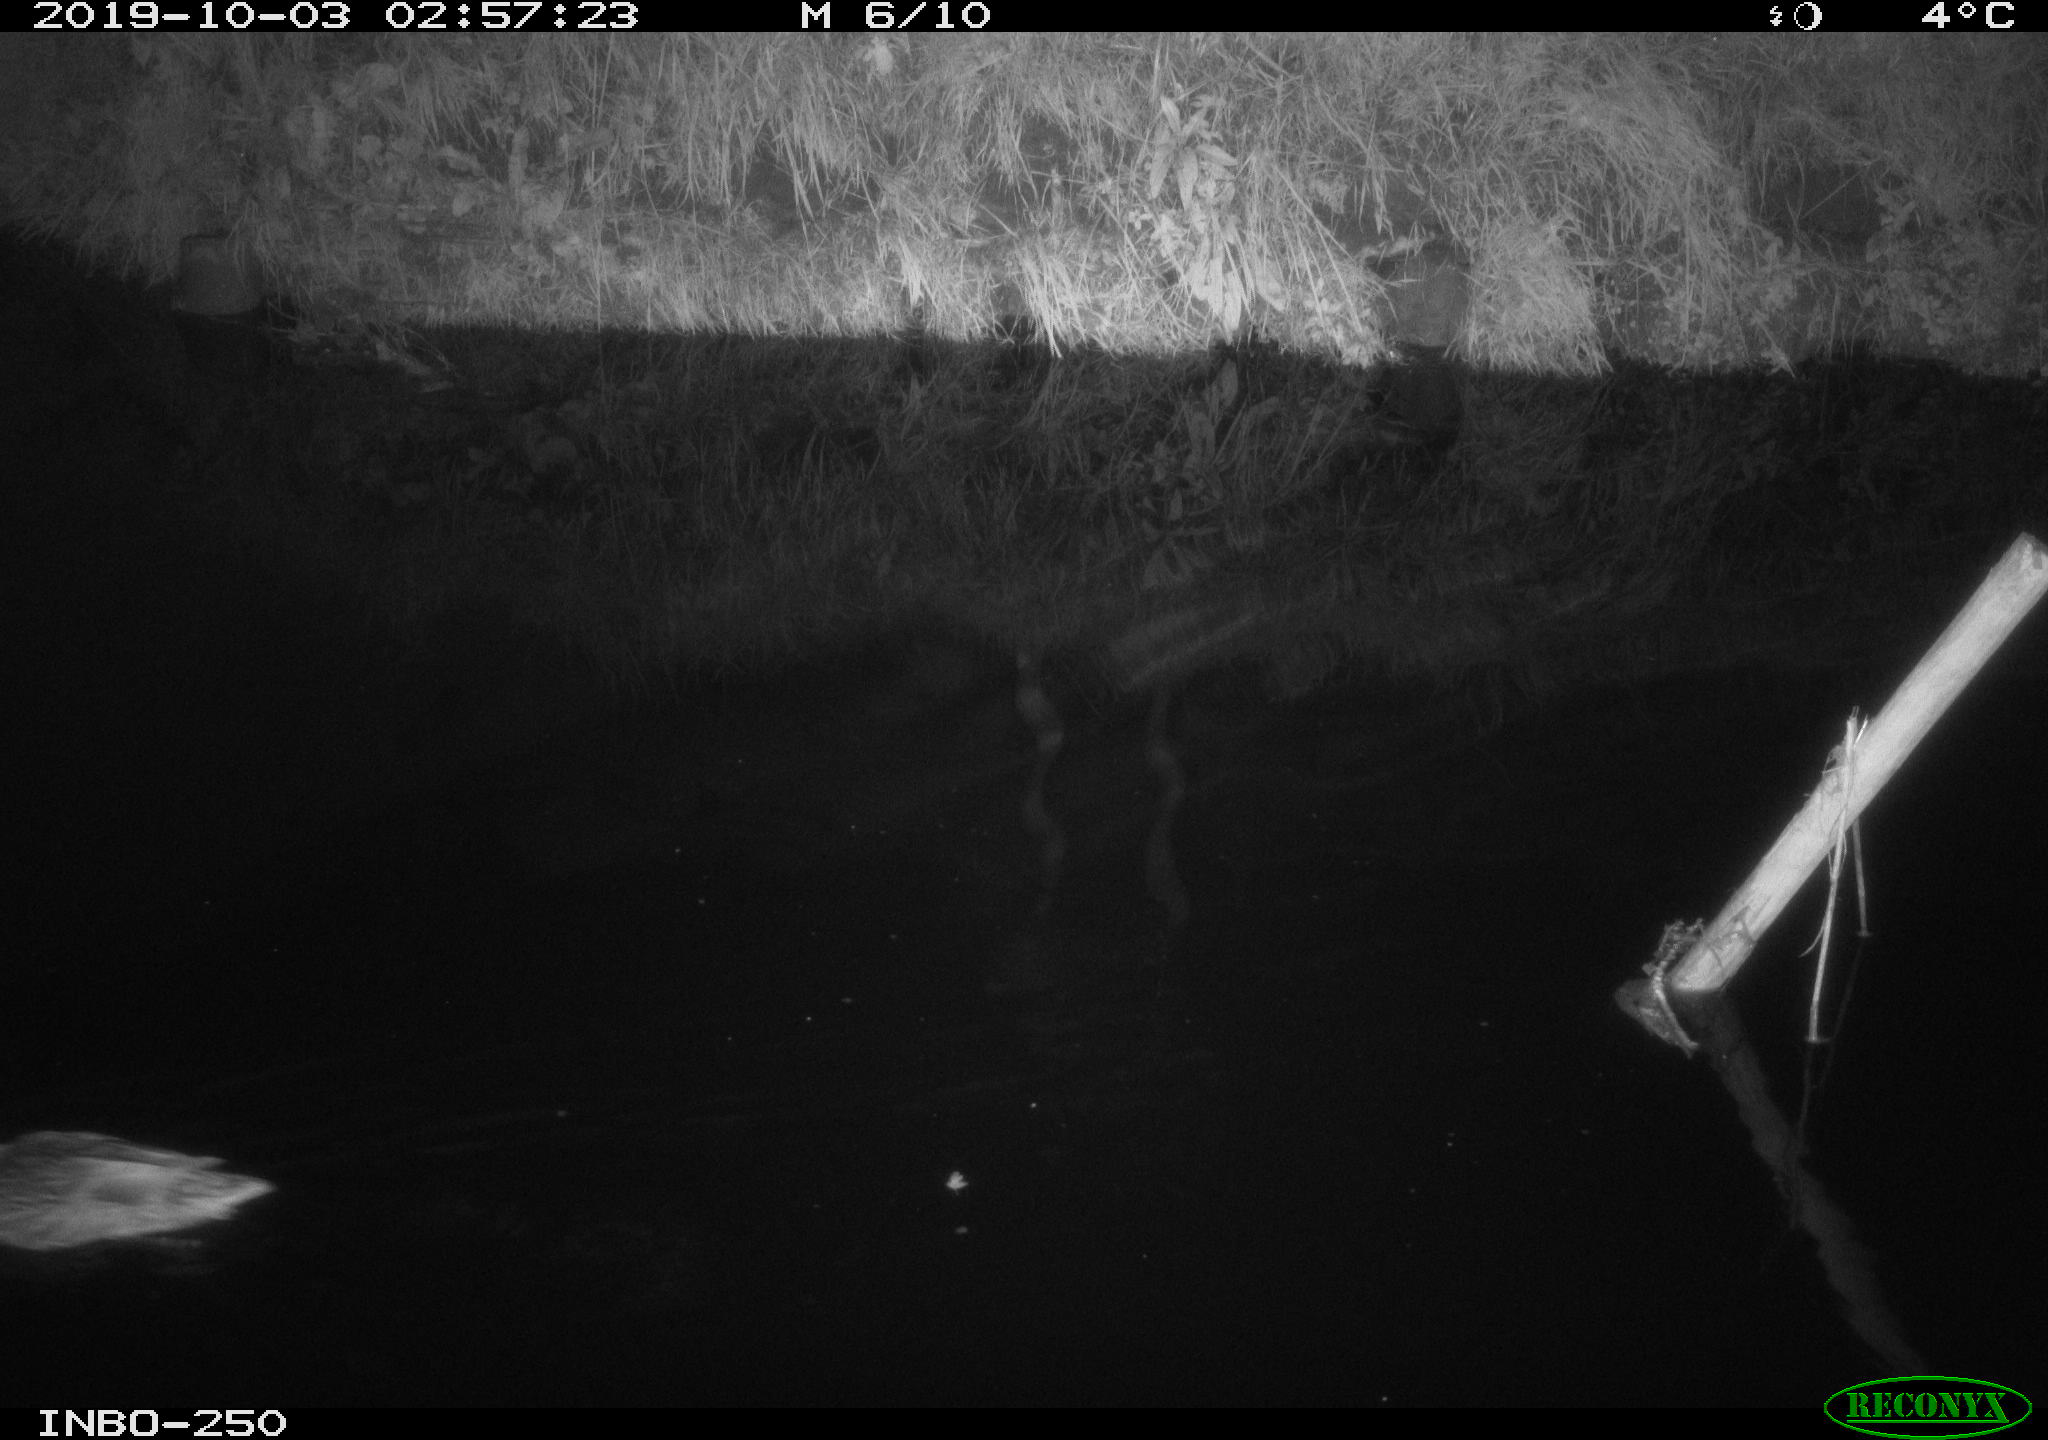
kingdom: Animalia
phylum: Chordata
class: Aves
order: Anseriformes
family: Anatidae
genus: Anas
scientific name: Anas platyrhynchos
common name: Mallard
